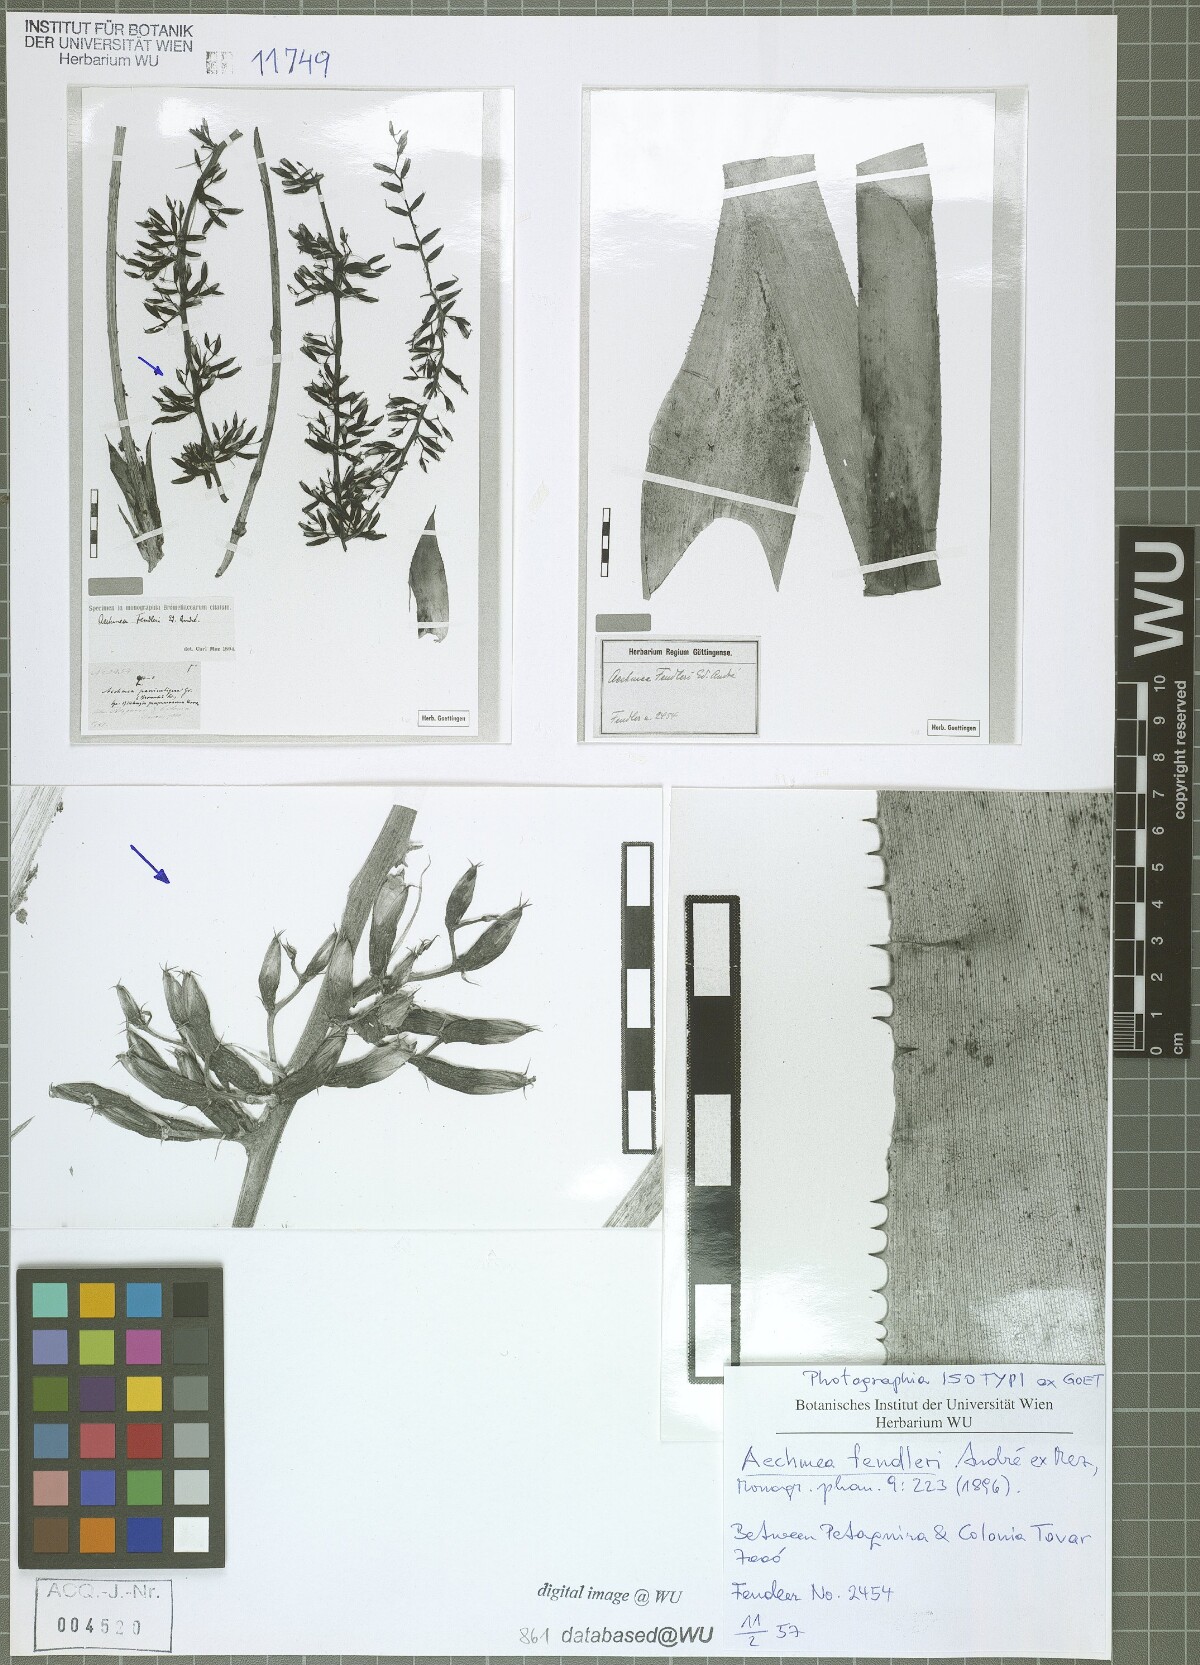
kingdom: Plantae
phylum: Tracheophyta
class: Liliopsida
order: Poales
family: Bromeliaceae
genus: Aechmea
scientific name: Aechmea fendleri
